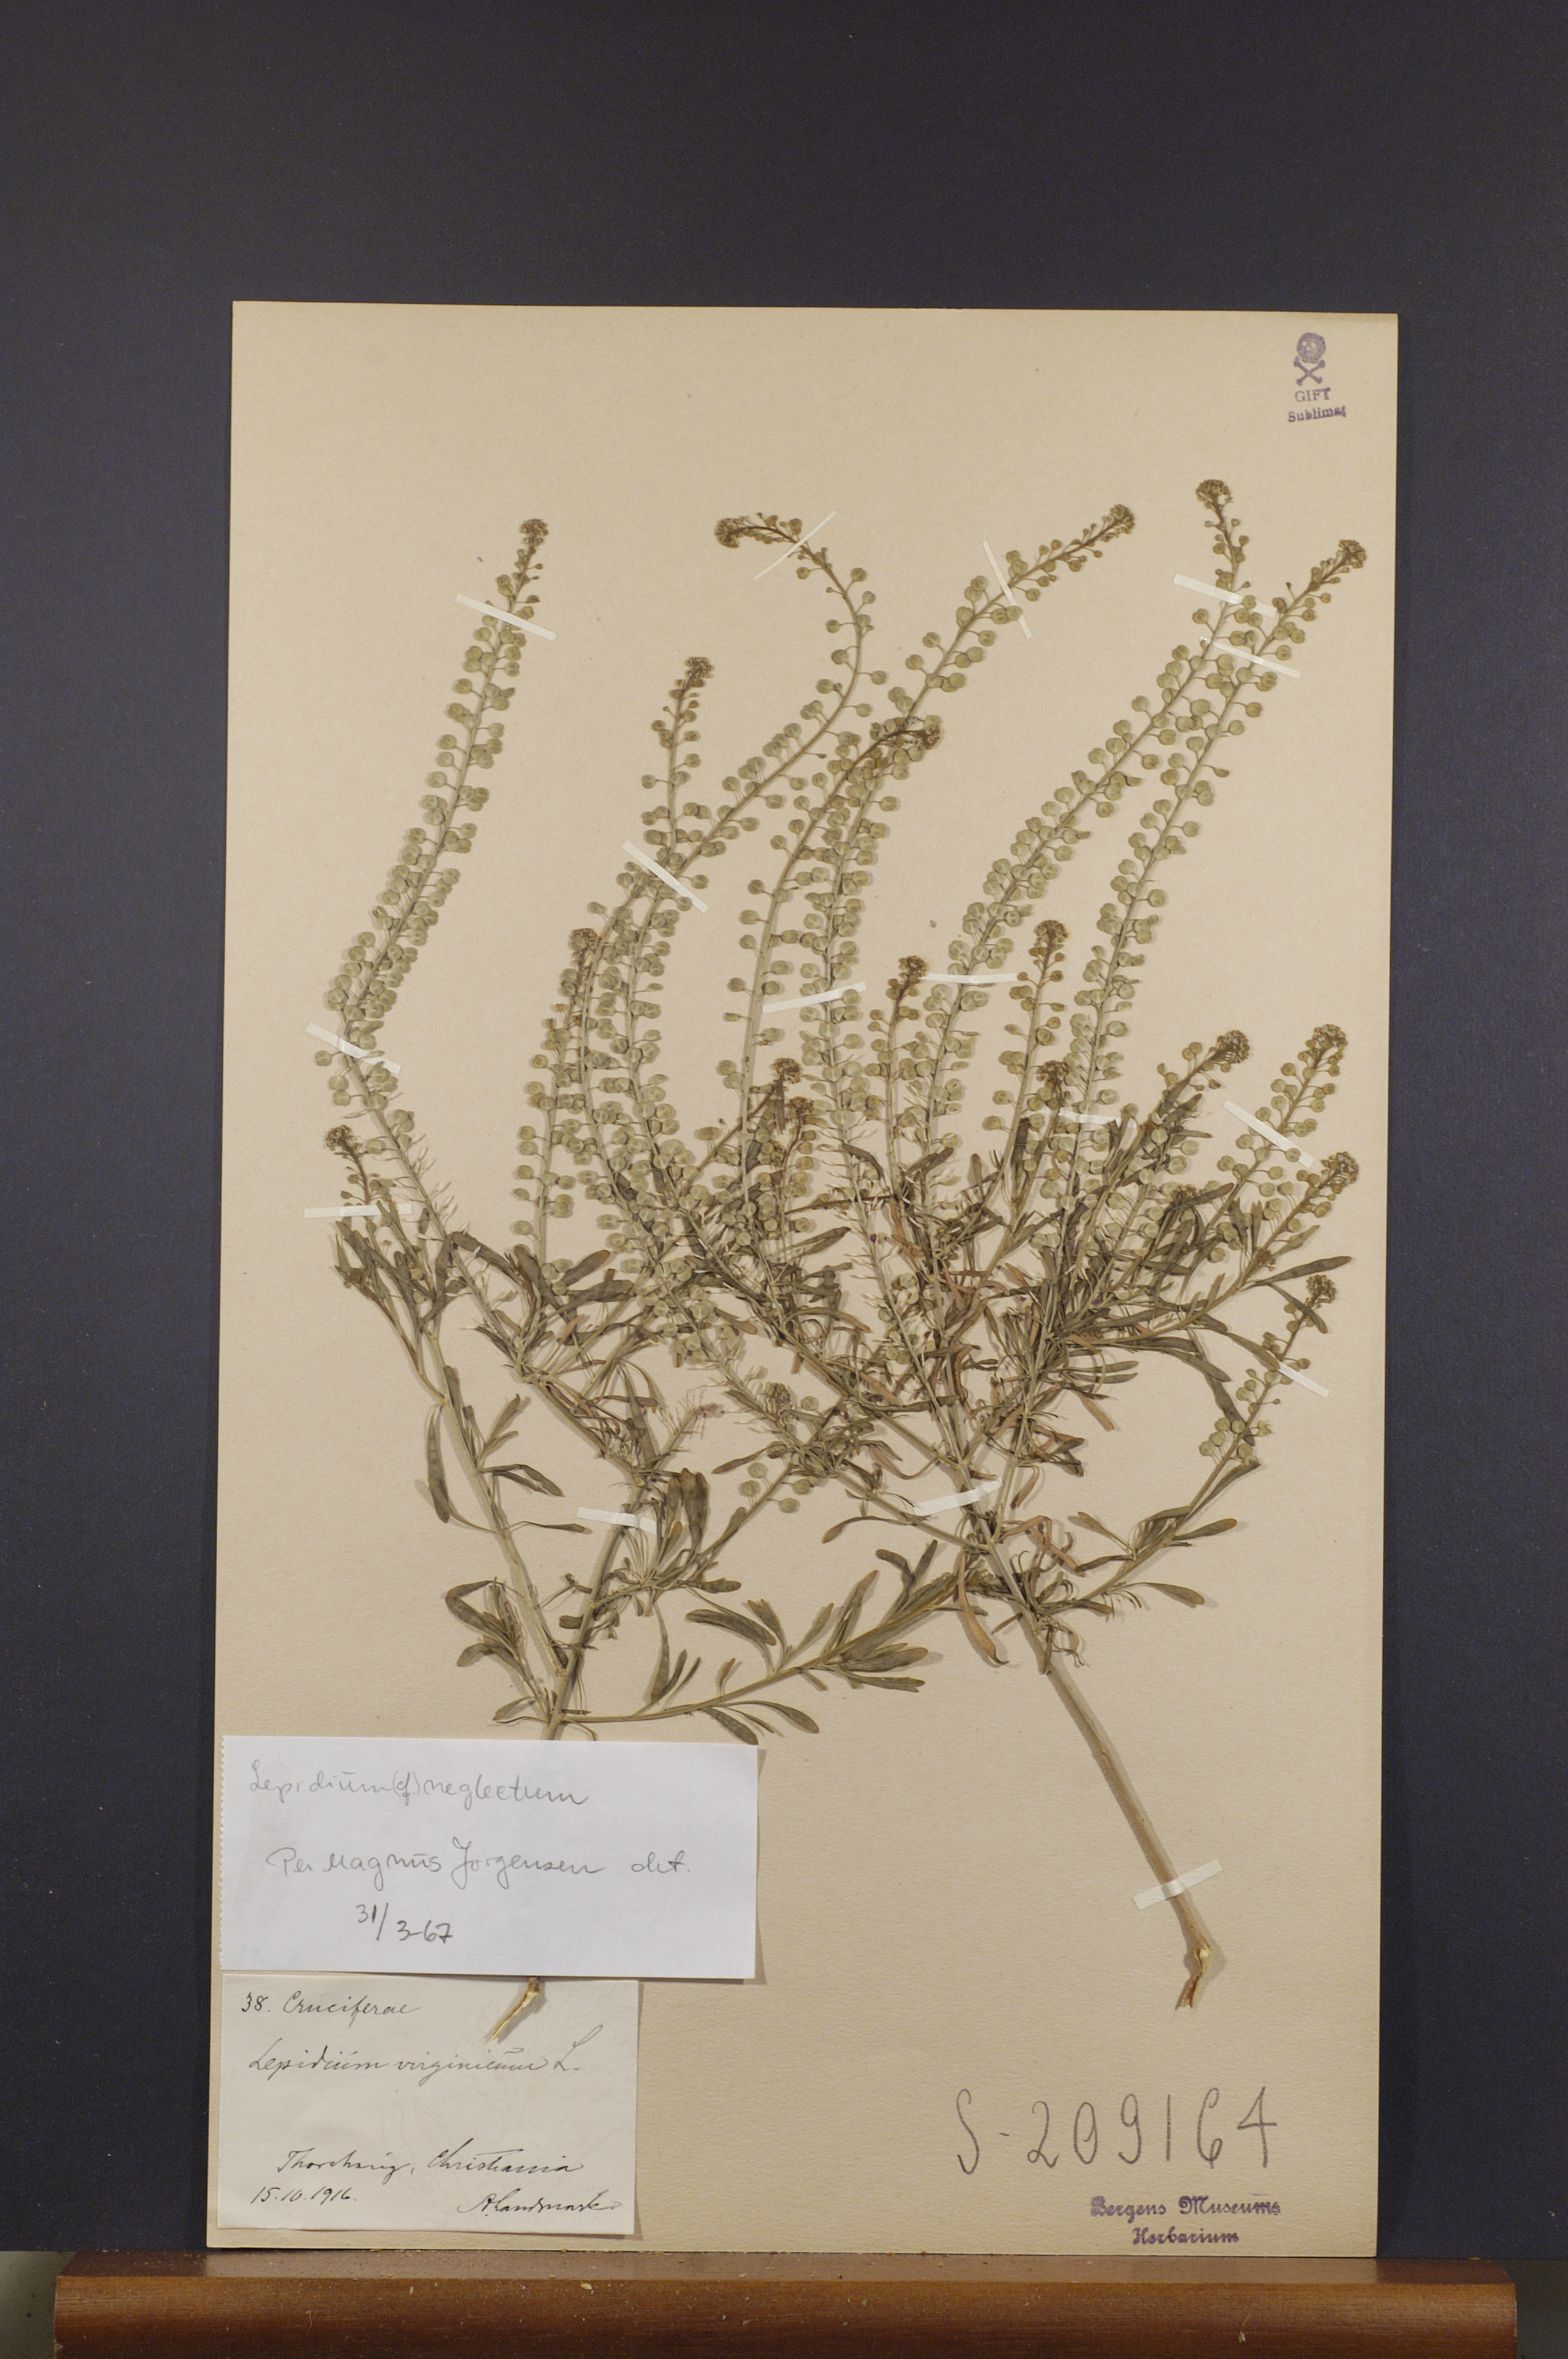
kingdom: Plantae
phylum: Tracheophyta
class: Magnoliopsida
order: Brassicales
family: Brassicaceae
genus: Lepidium
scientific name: Lepidium densiflorum
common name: Miner's pepperwort
